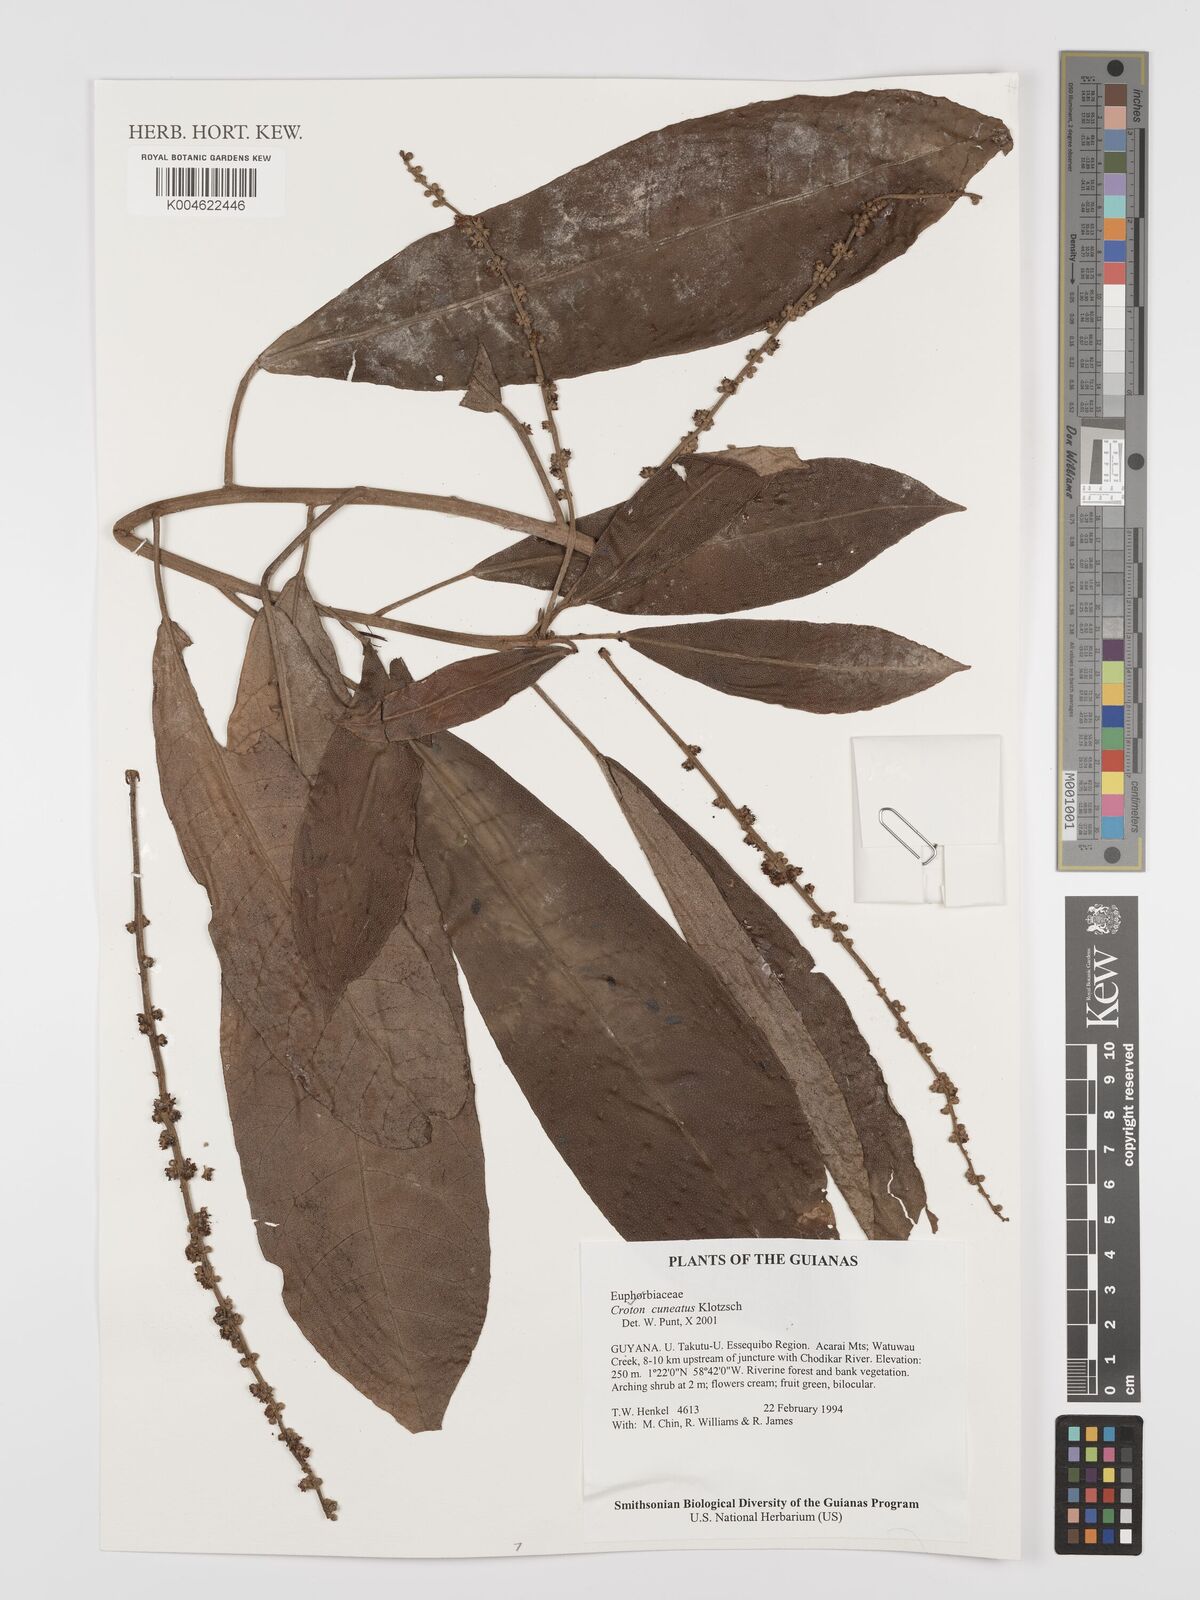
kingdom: Plantae
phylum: Tracheophyta
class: Magnoliopsida
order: Malpighiales
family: Euphorbiaceae
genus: Croton
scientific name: Croton
